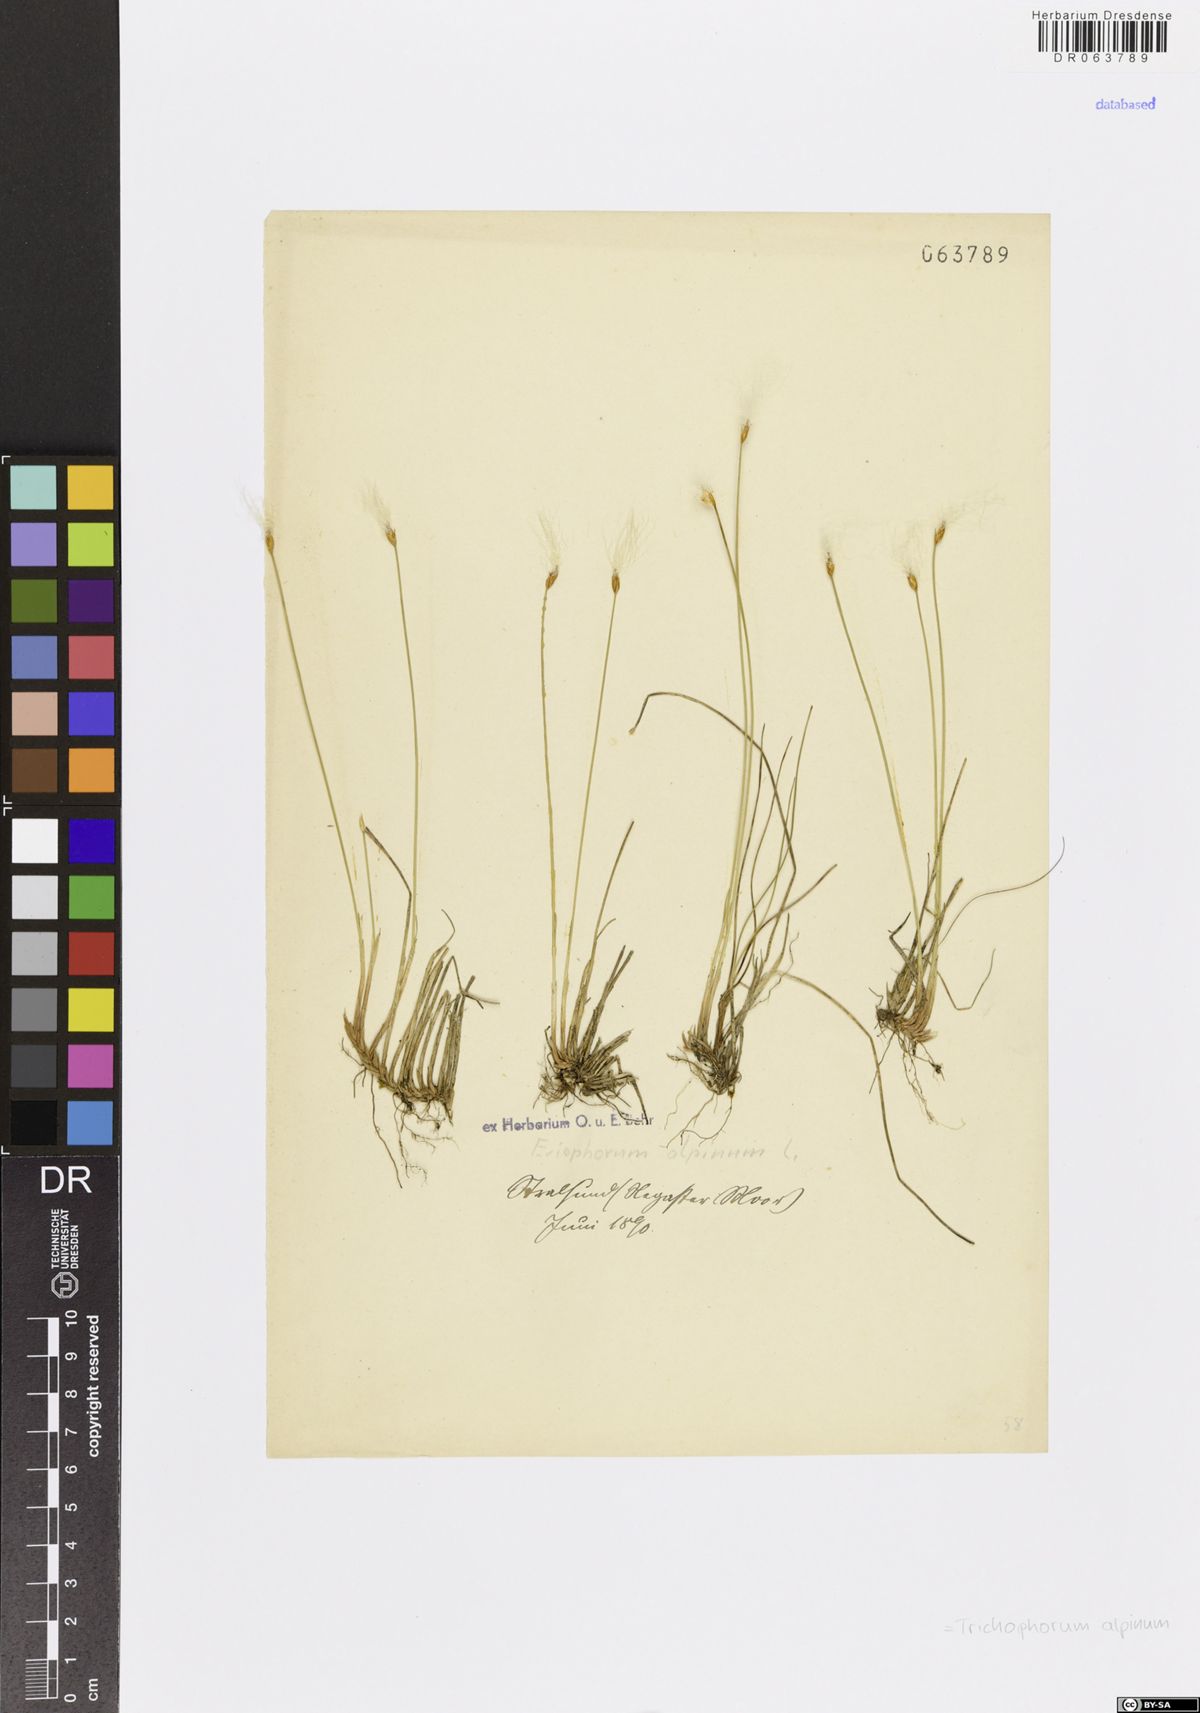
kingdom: Plantae
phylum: Tracheophyta
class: Liliopsida
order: Poales
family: Cyperaceae
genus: Trichophorum
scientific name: Trichophorum alpinum
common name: Alpine bulrush
